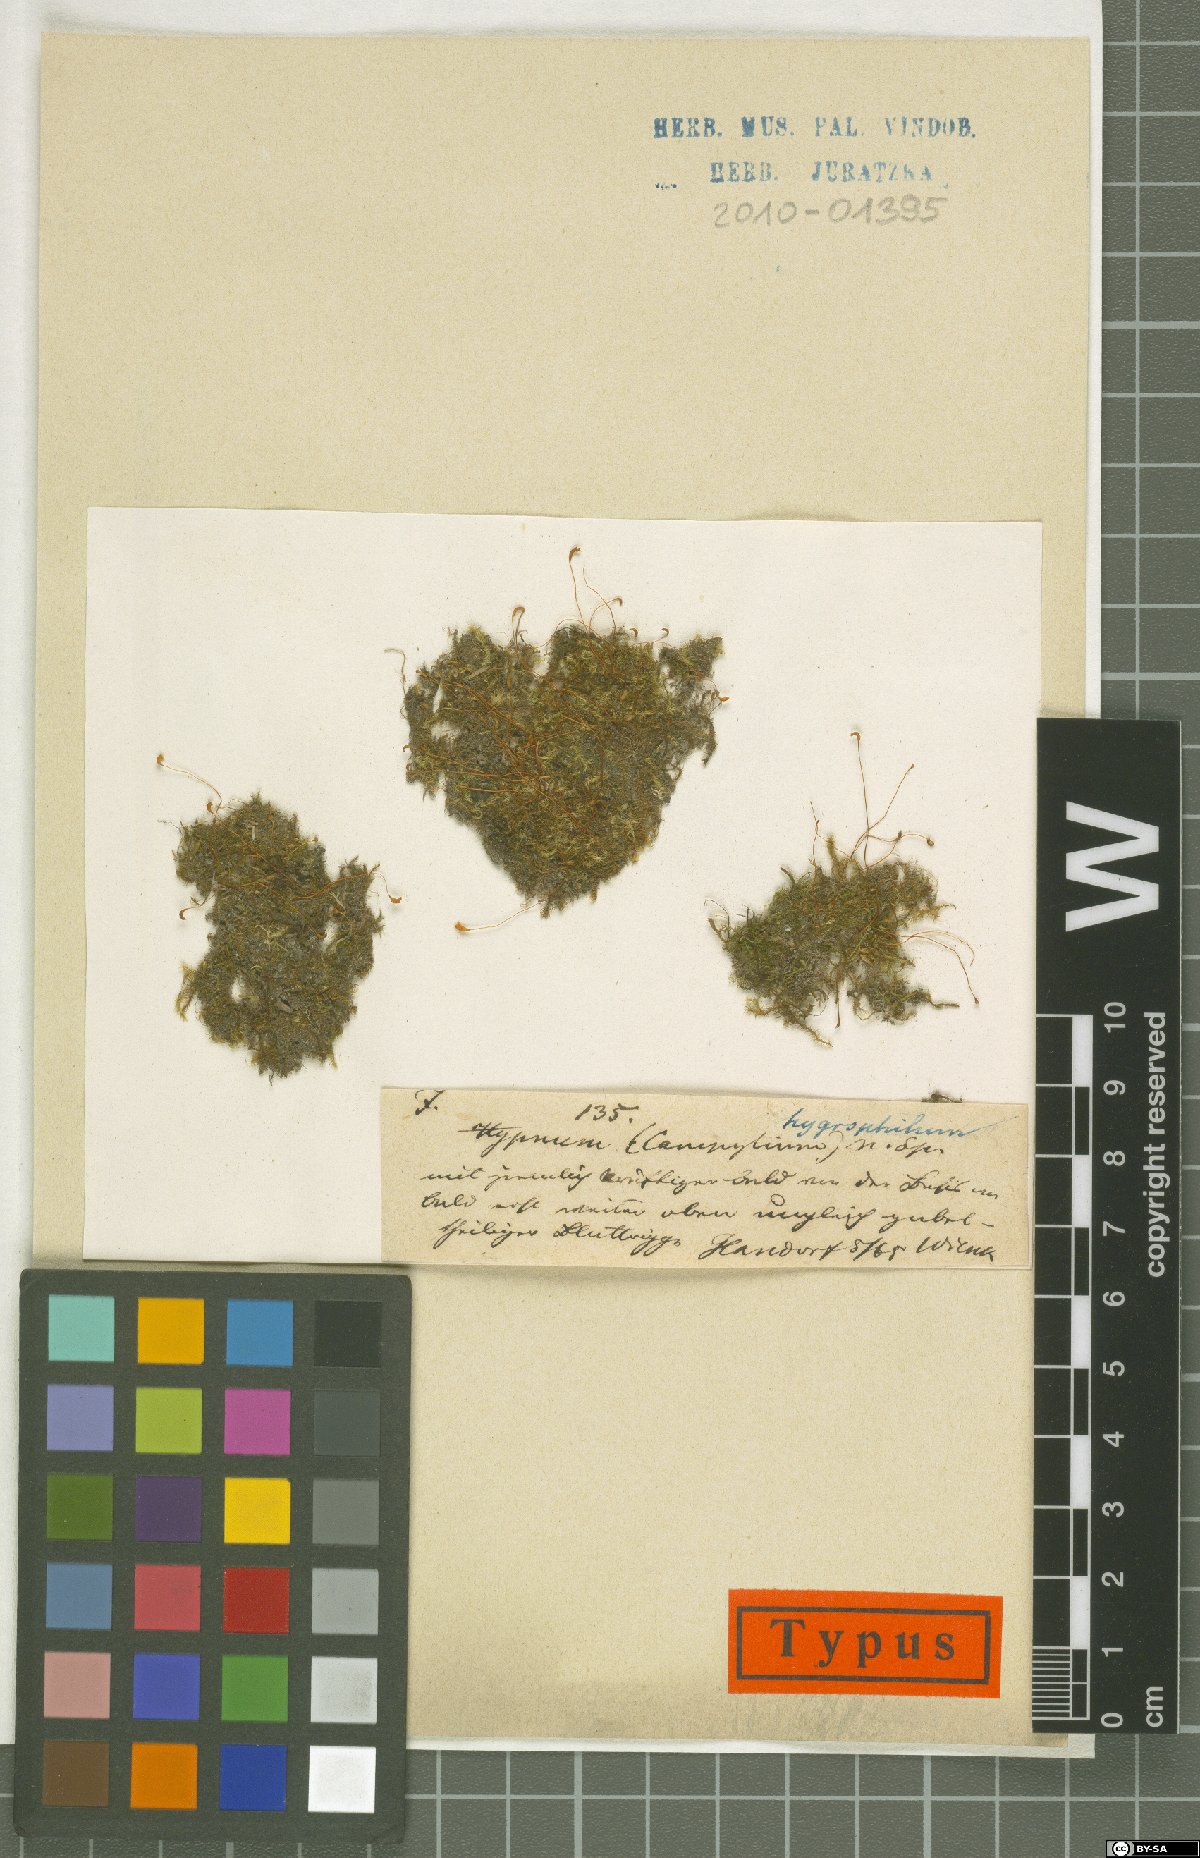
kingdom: Plantae
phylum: Bryophyta
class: Bryopsida
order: Hypnales
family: Amblystegiaceae
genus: Pseudocampylium
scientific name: Pseudocampylium radicale
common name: Long-stalked fine wet moss
